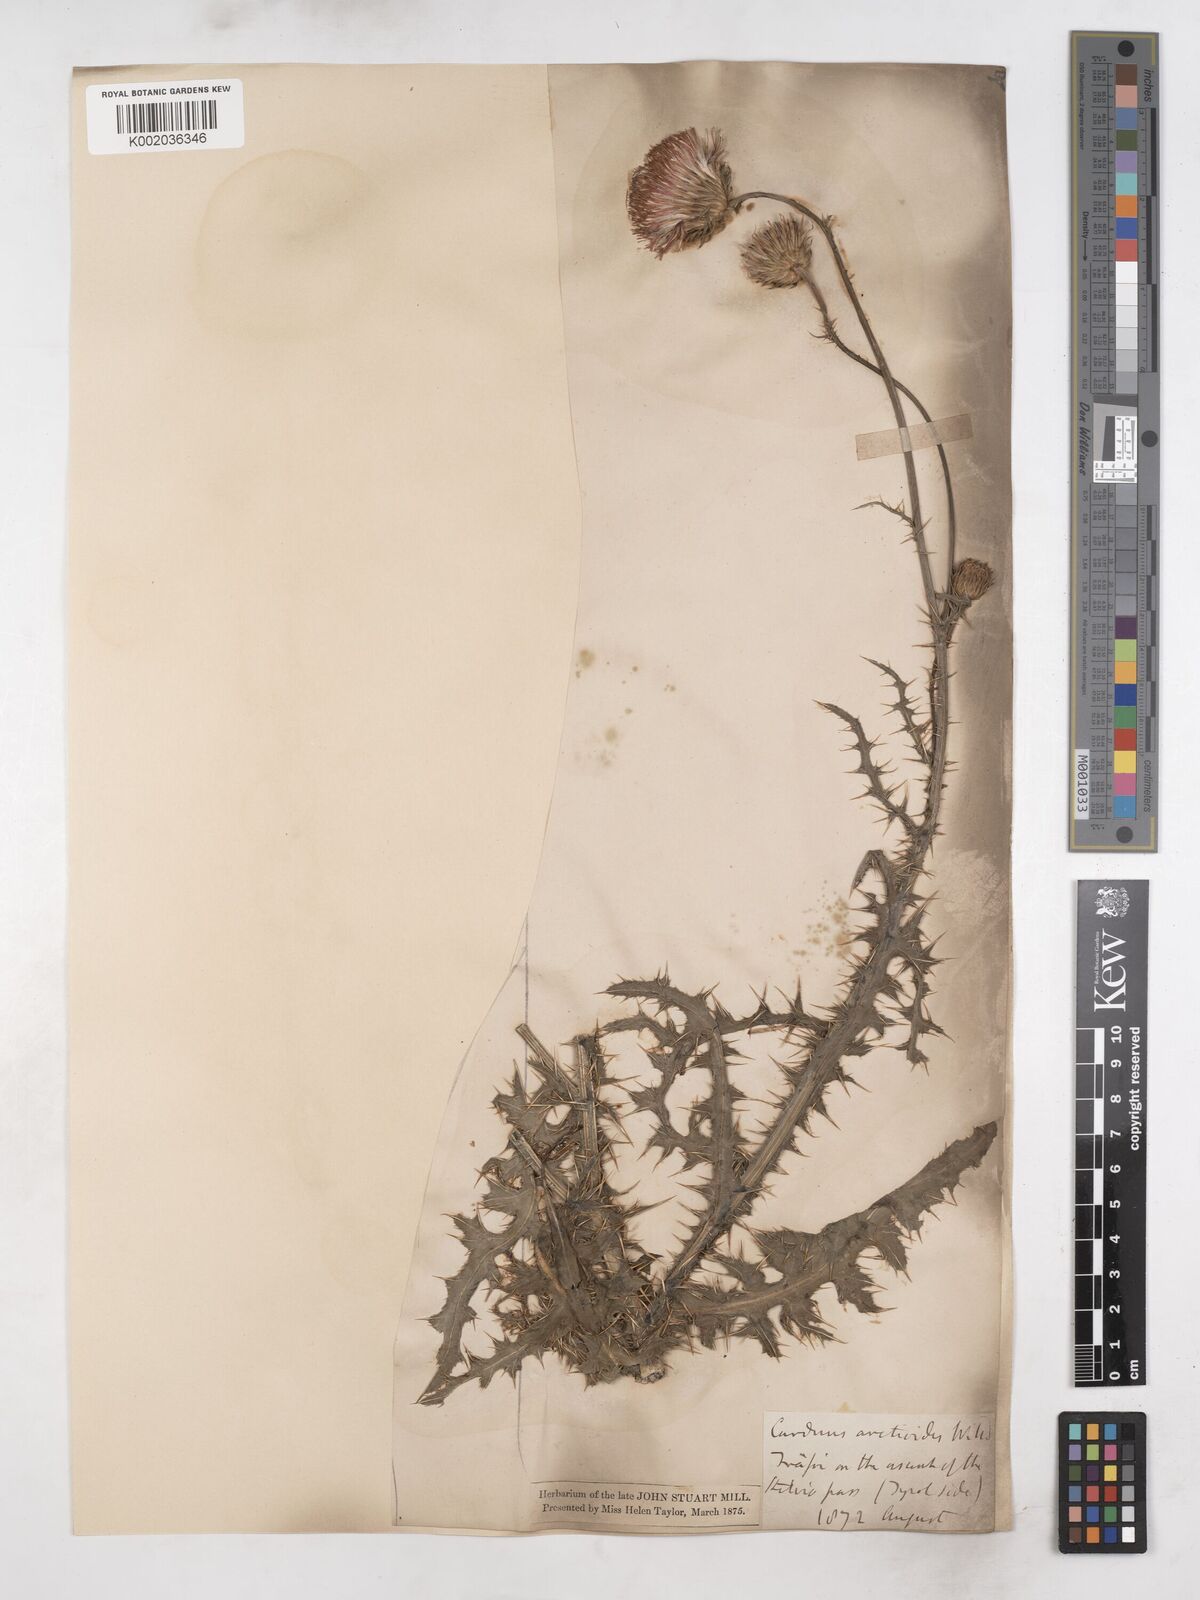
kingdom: Plantae
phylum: Tracheophyta
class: Magnoliopsida
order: Asterales
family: Asteraceae
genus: Carduus
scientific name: Carduus defloratus
